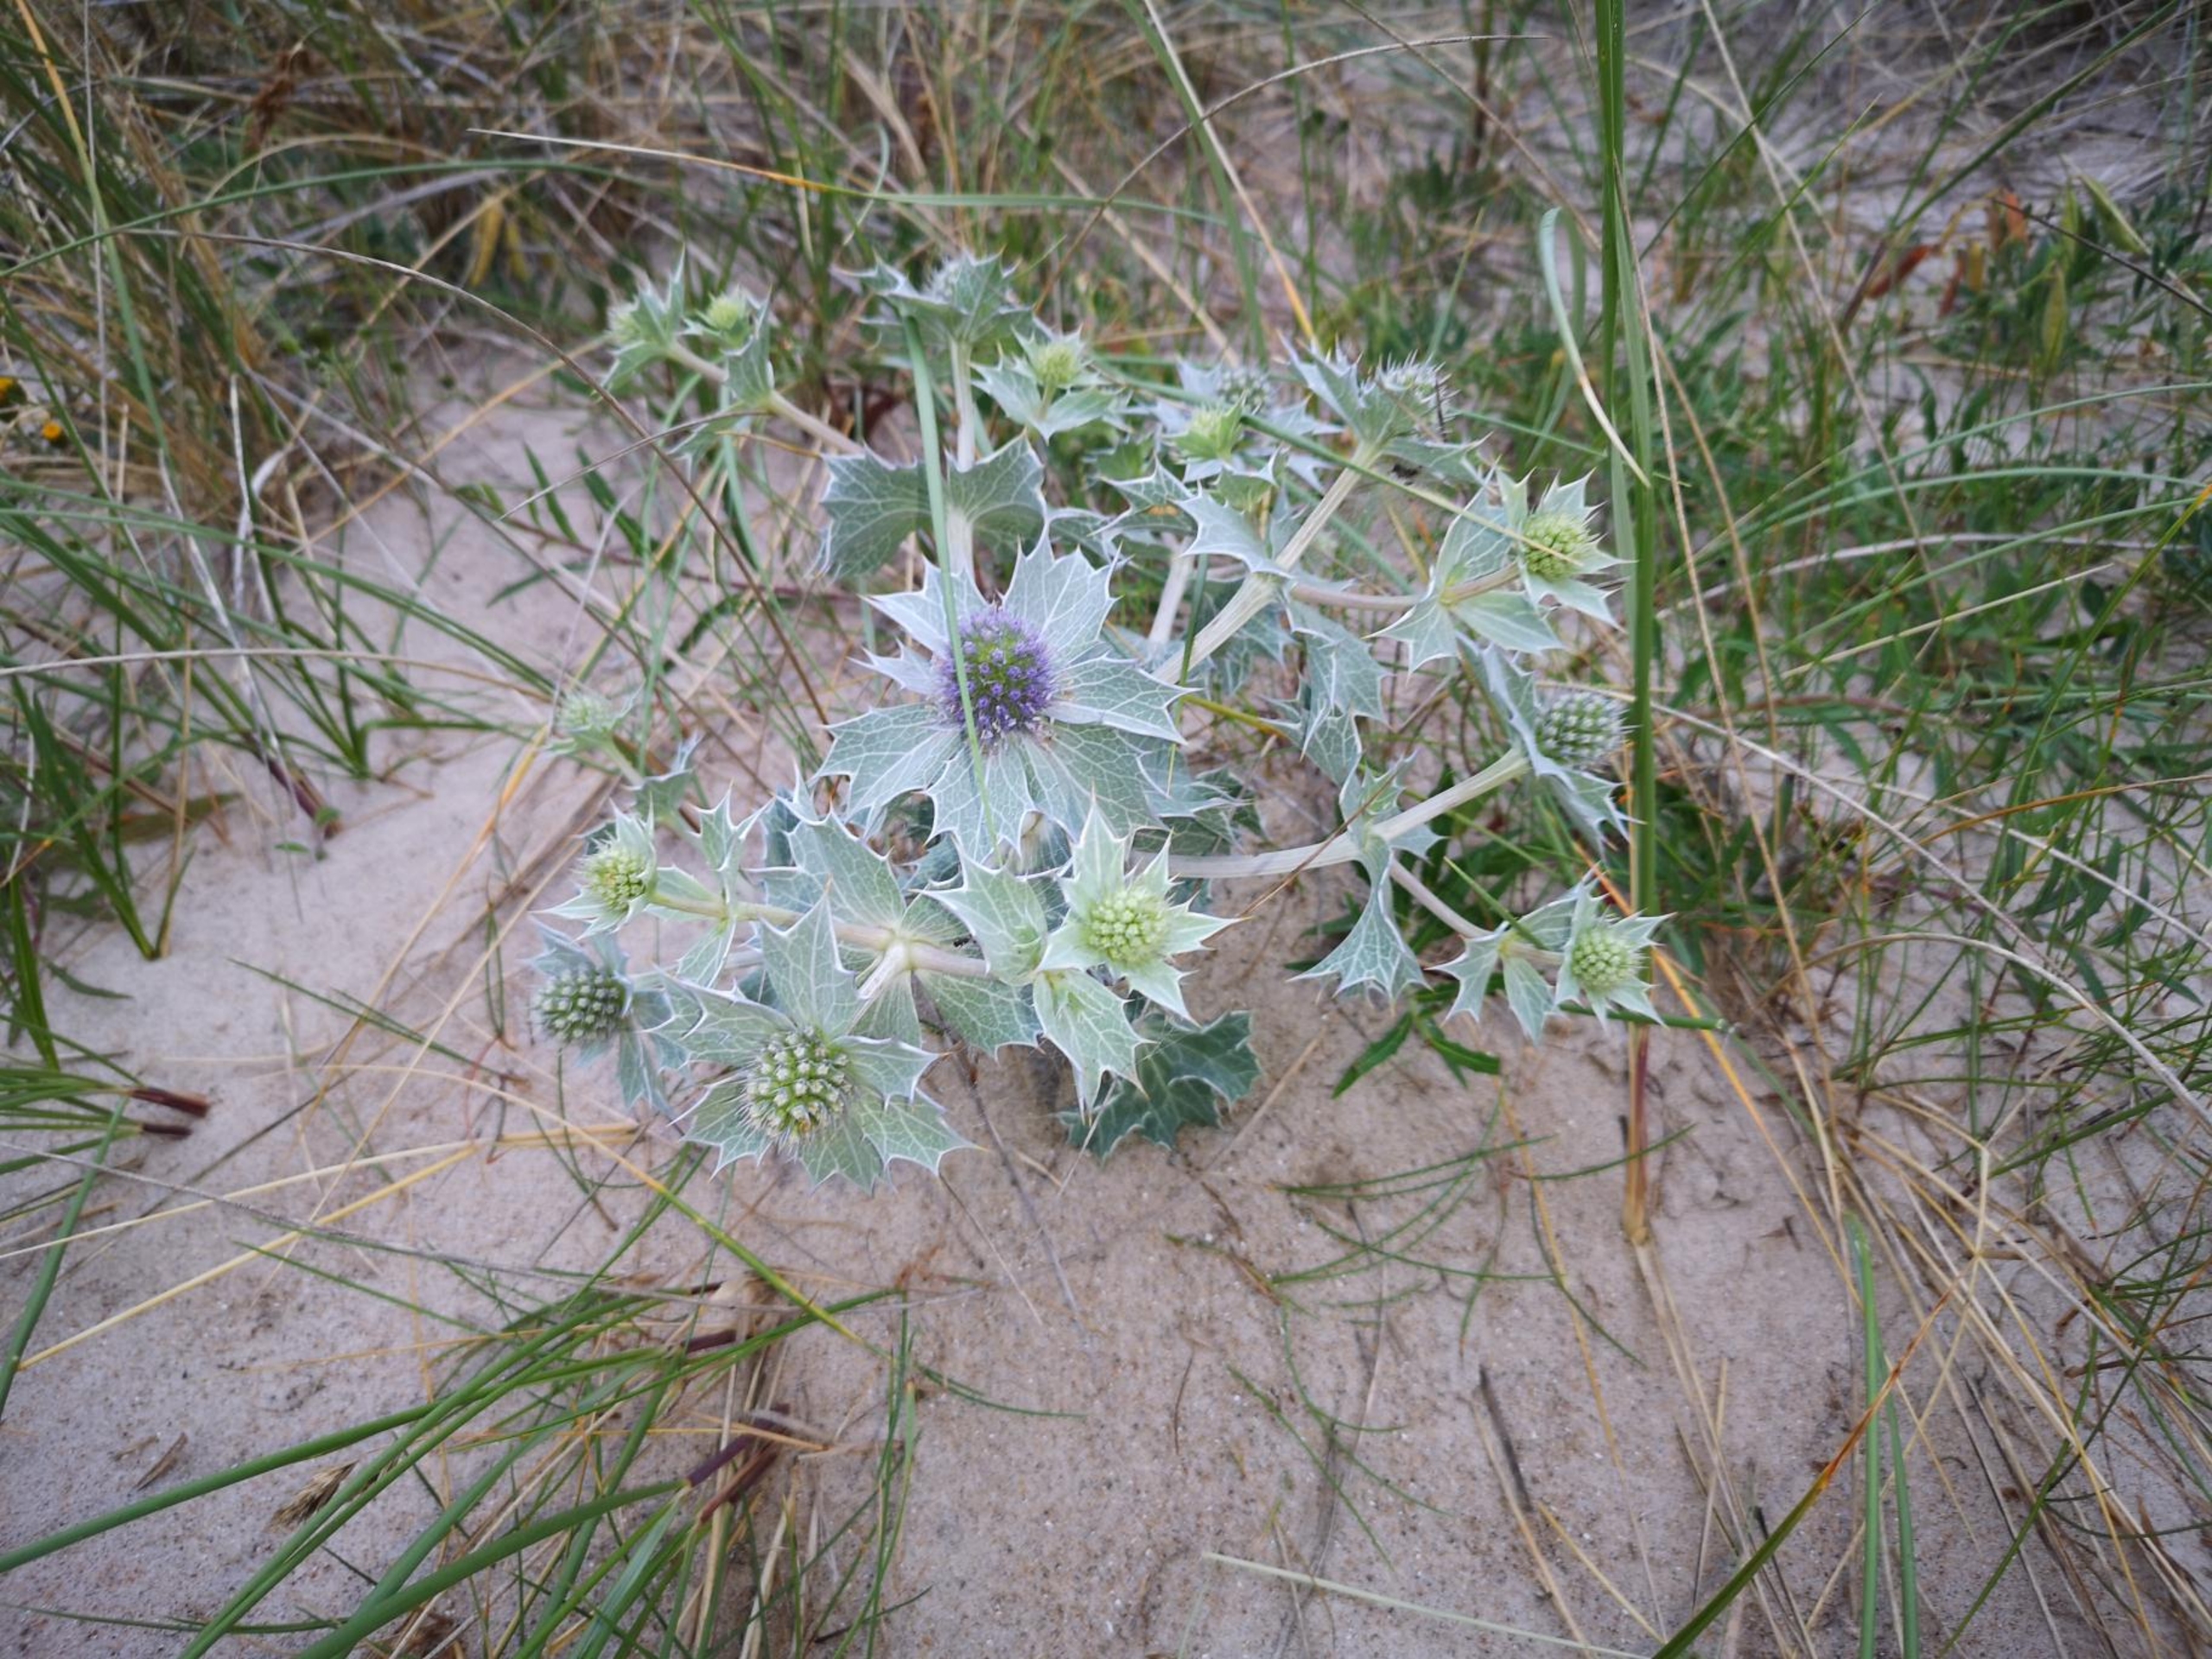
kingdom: Plantae
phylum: Tracheophyta
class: Magnoliopsida
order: Apiales
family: Apiaceae
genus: Eryngium
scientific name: Eryngium maritimum
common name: Strand-mandstro
